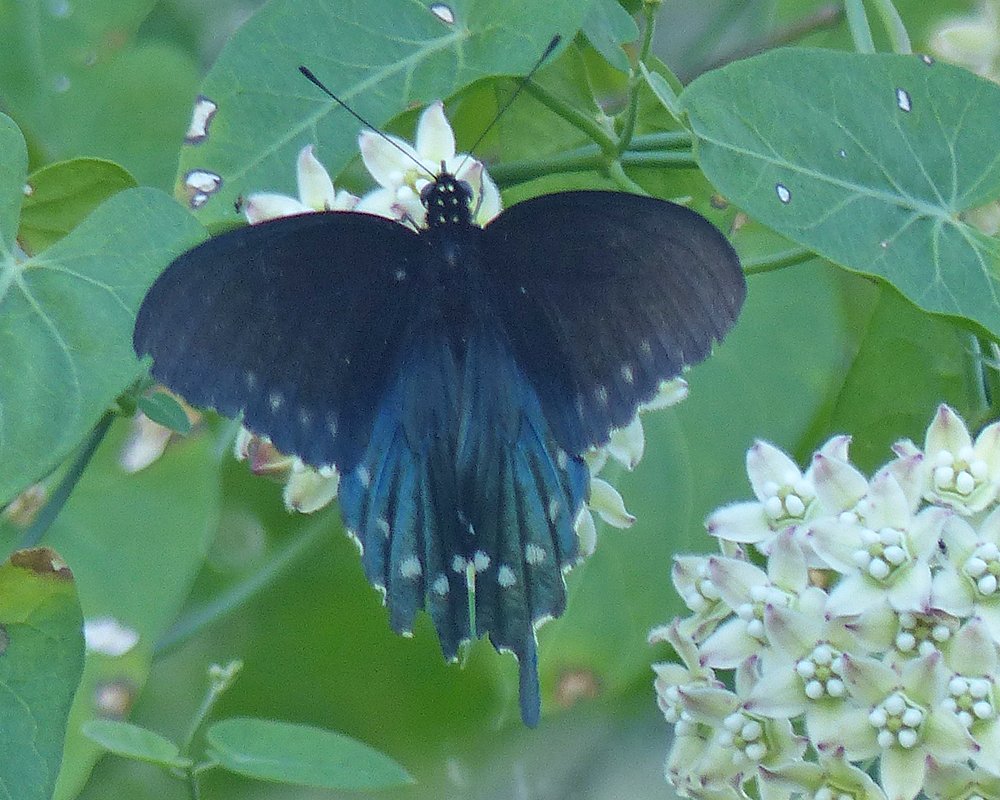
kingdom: Animalia
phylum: Arthropoda
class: Insecta
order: Lepidoptera
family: Papilionidae
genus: Battus
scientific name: Battus philenor
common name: Pipevine Swallowtail
